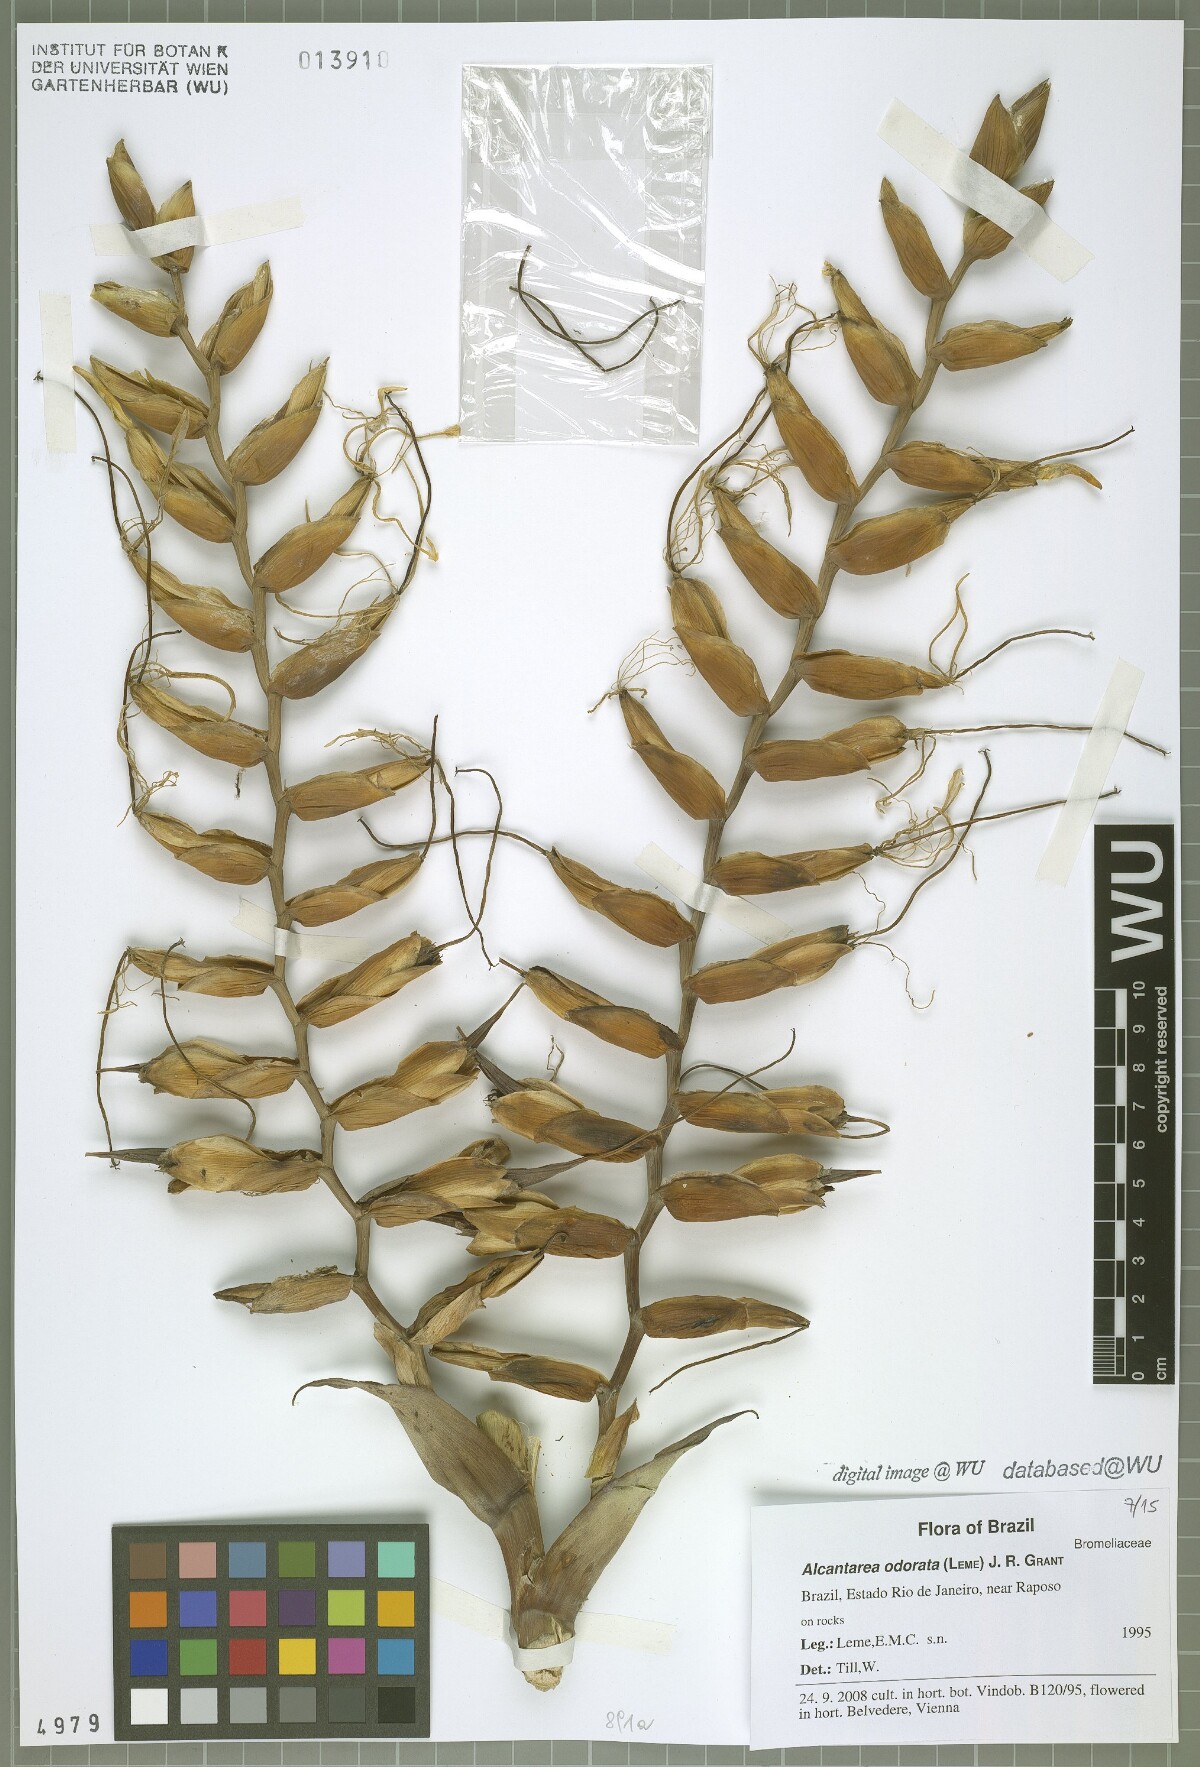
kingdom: Plantae
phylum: Tracheophyta
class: Liliopsida
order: Poales
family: Bromeliaceae
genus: Alcantarea
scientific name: Alcantarea odorata
